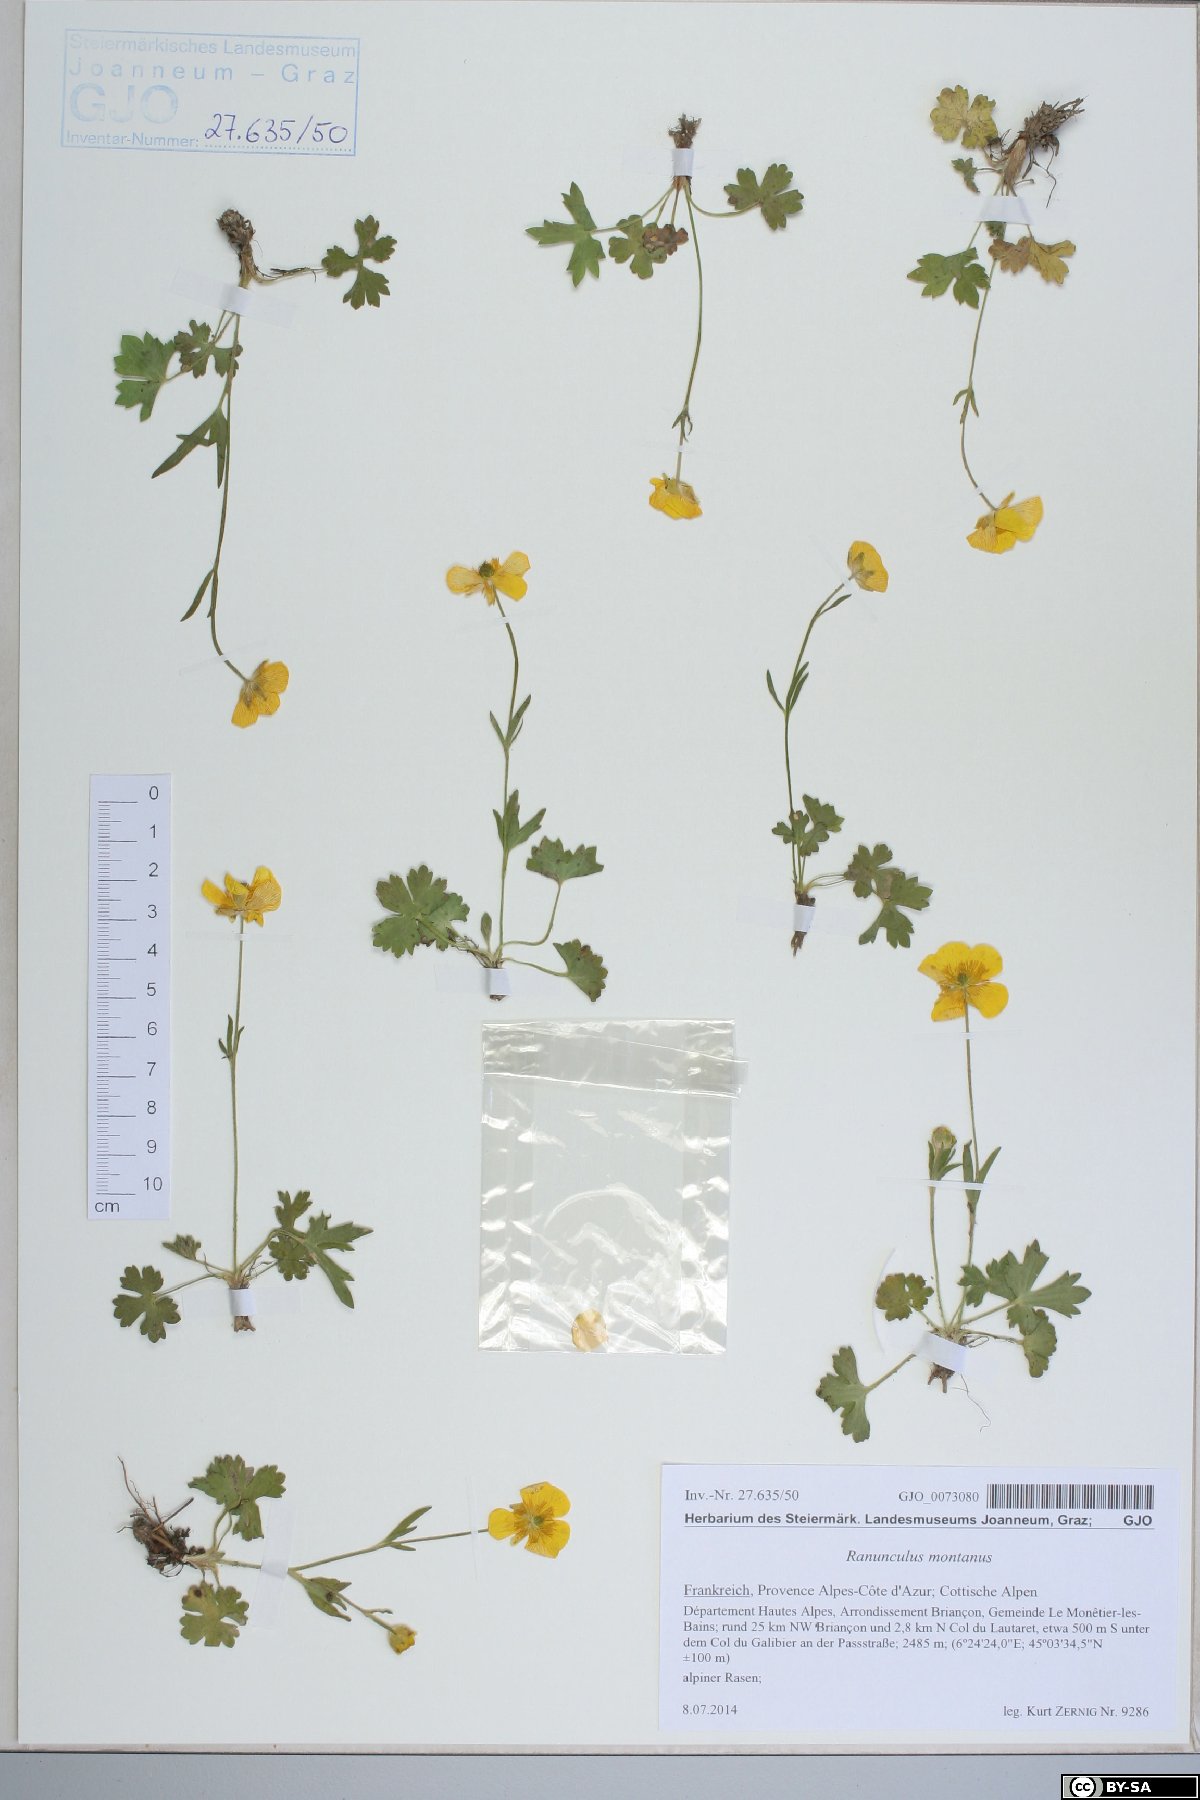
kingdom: Plantae
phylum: Tracheophyta
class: Magnoliopsida
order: Ranunculales
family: Ranunculaceae
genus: Ranunculus
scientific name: Ranunculus montanus
